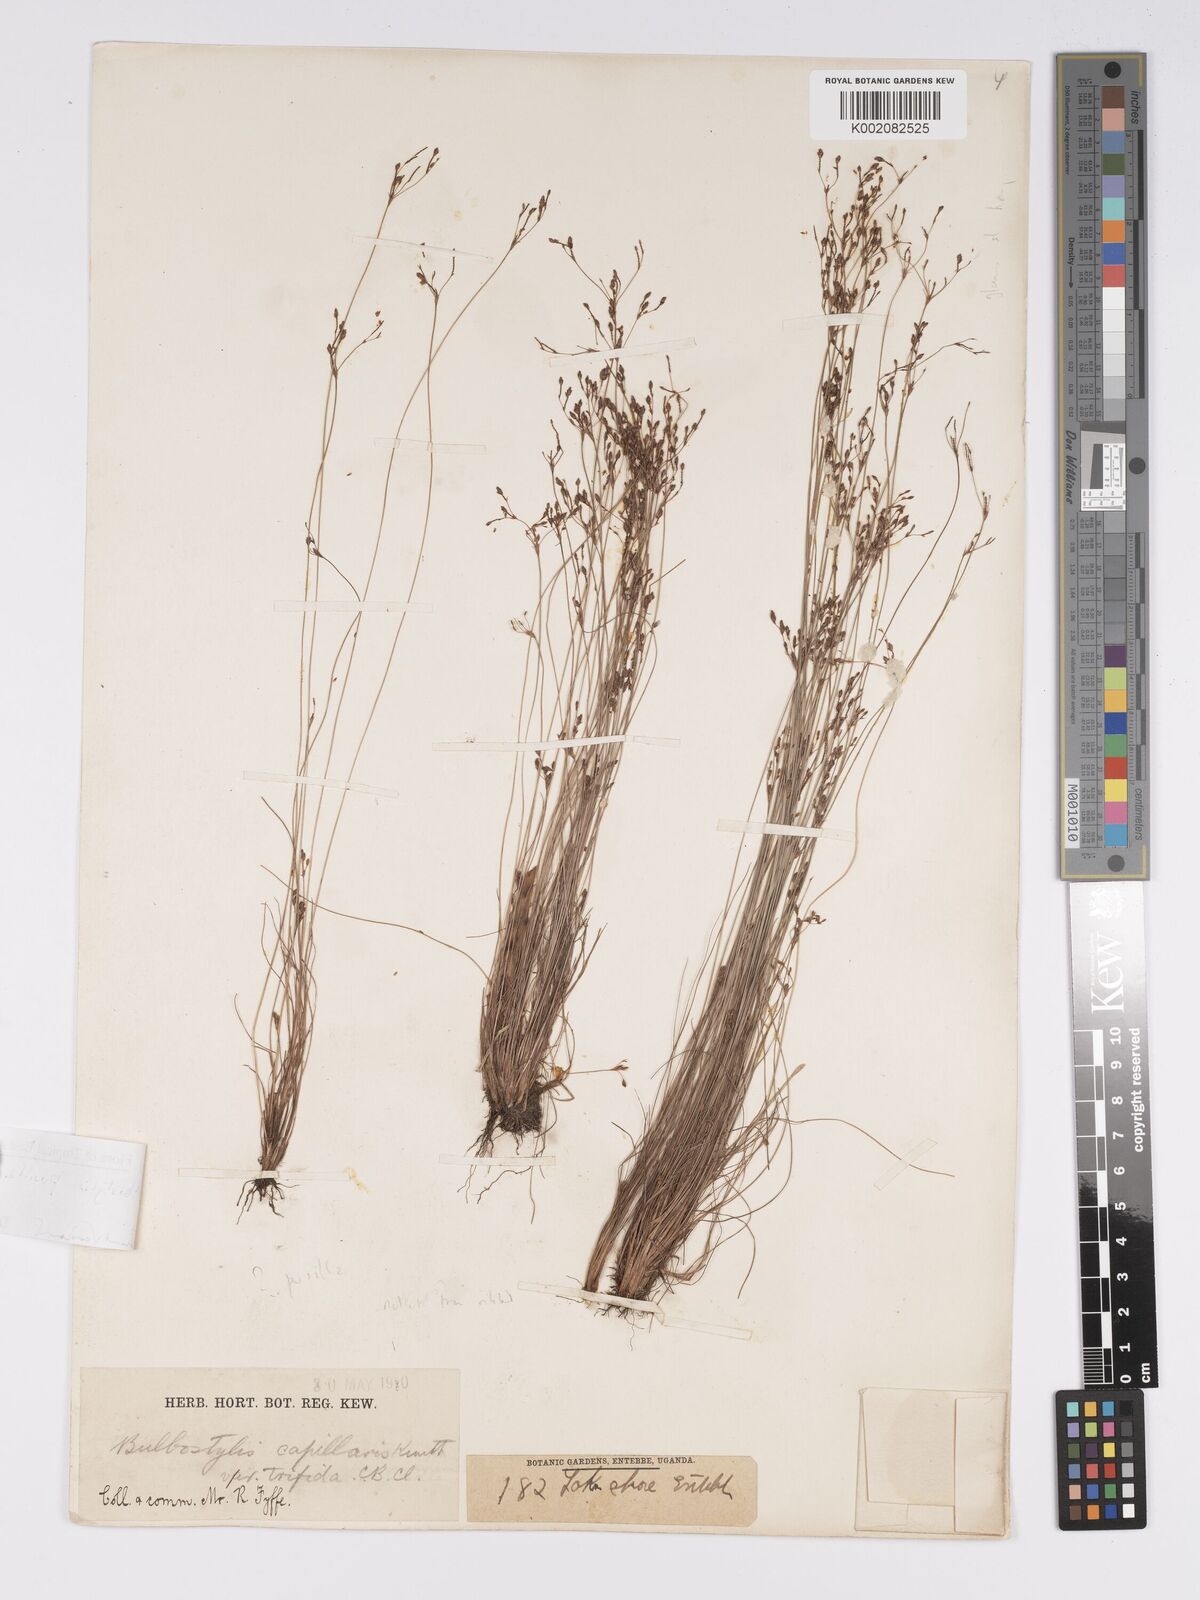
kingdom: Plantae
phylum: Tracheophyta
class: Liliopsida
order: Poales
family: Cyperaceae
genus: Bulbostylis
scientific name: Bulbostylis pusilla
